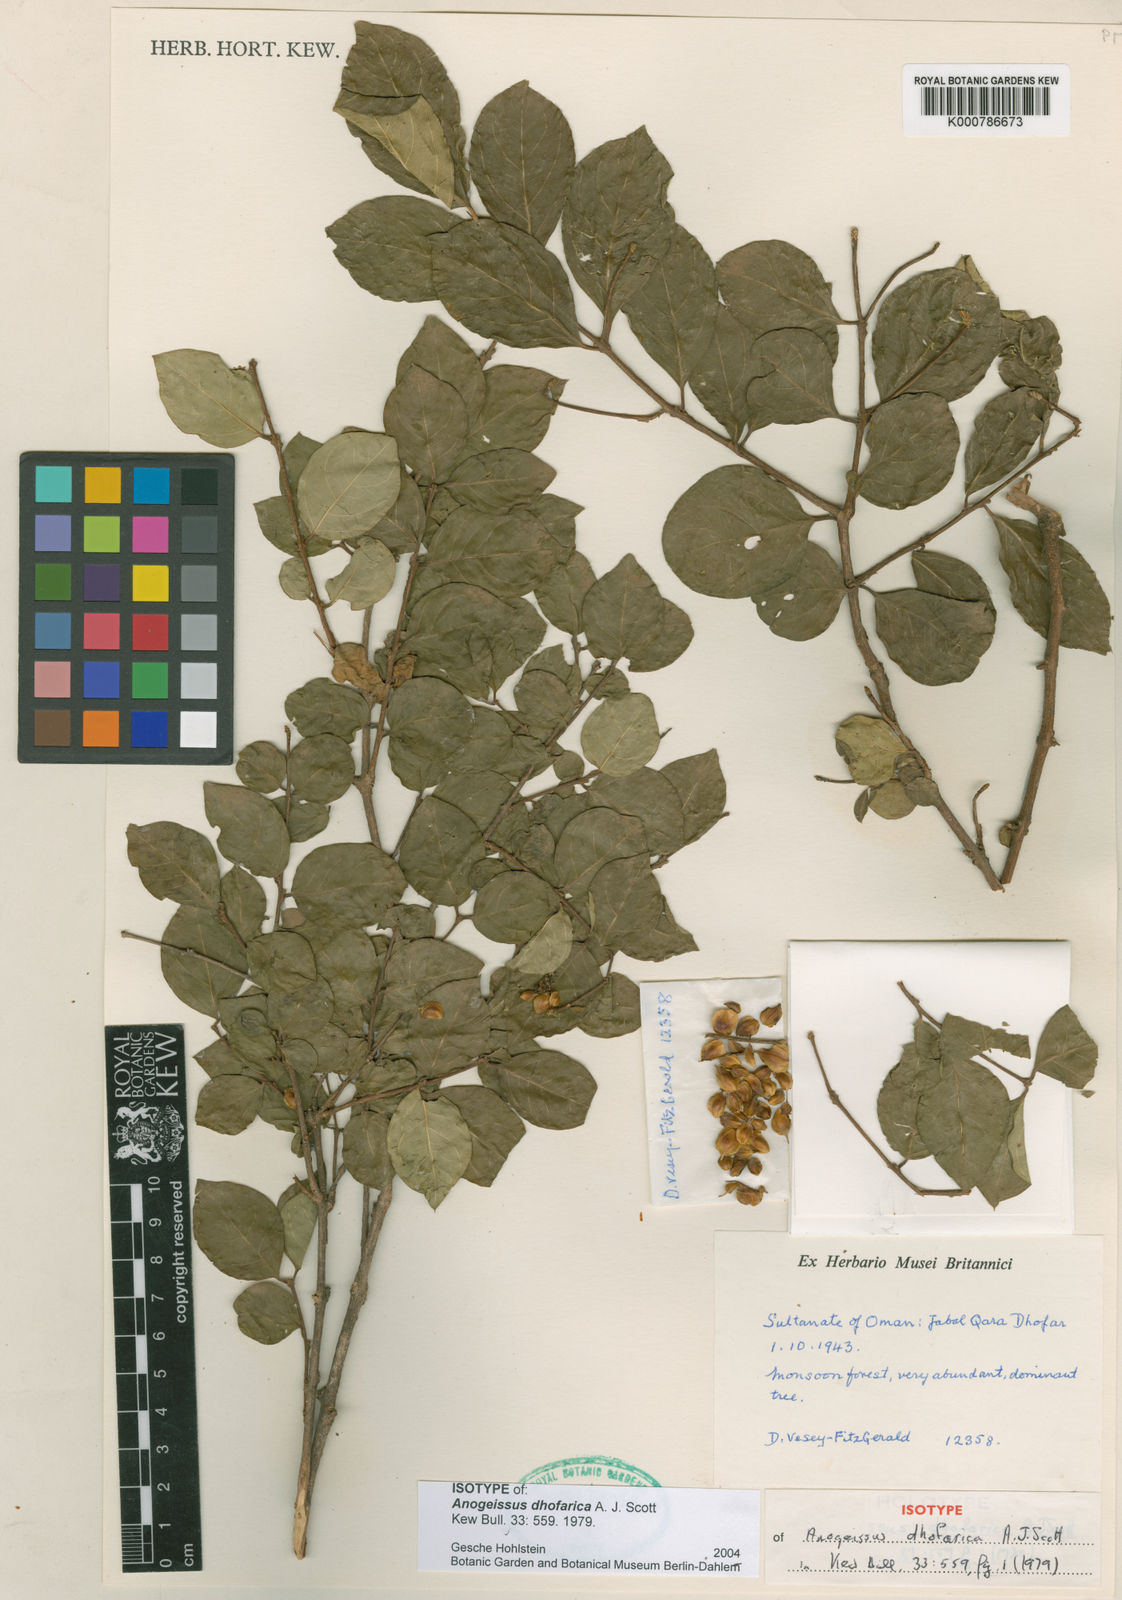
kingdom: Plantae
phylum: Tracheophyta
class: Magnoliopsida
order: Myrtales
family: Combretaceae
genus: Terminalia
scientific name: Terminalia dhofarica
